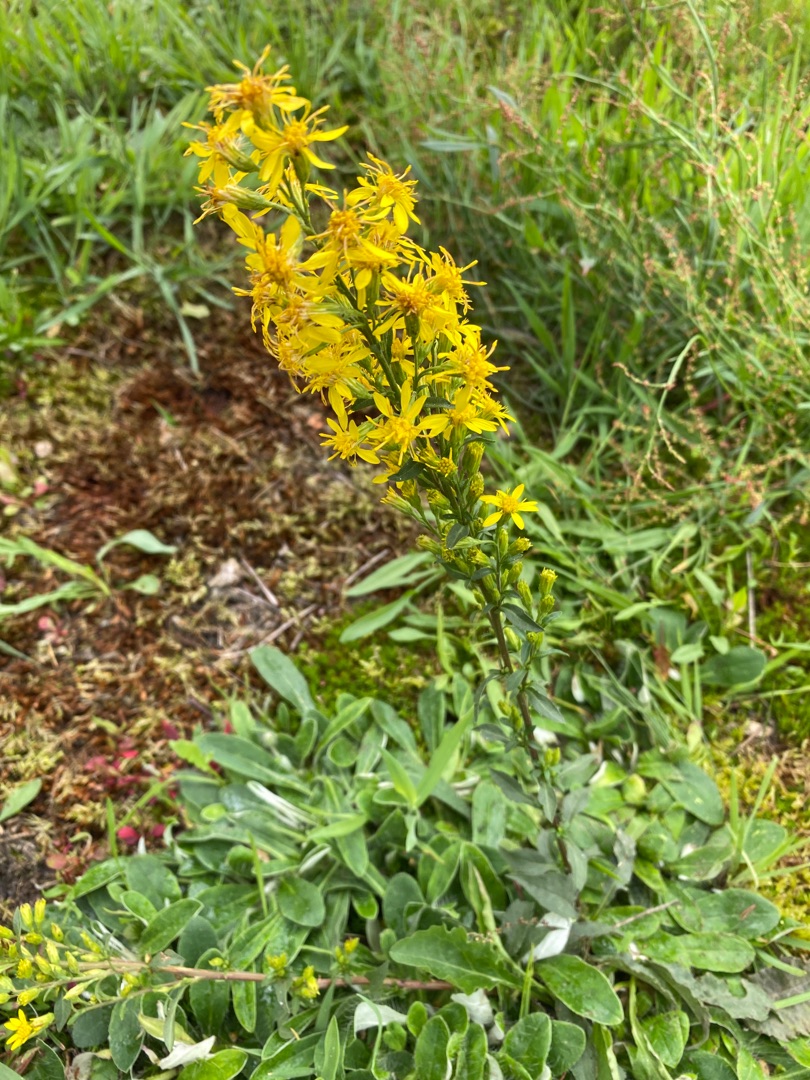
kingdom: Plantae
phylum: Tracheophyta
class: Magnoliopsida
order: Asterales
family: Asteraceae
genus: Solidago
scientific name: Solidago virgaurea
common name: Almindelig gyldenris
